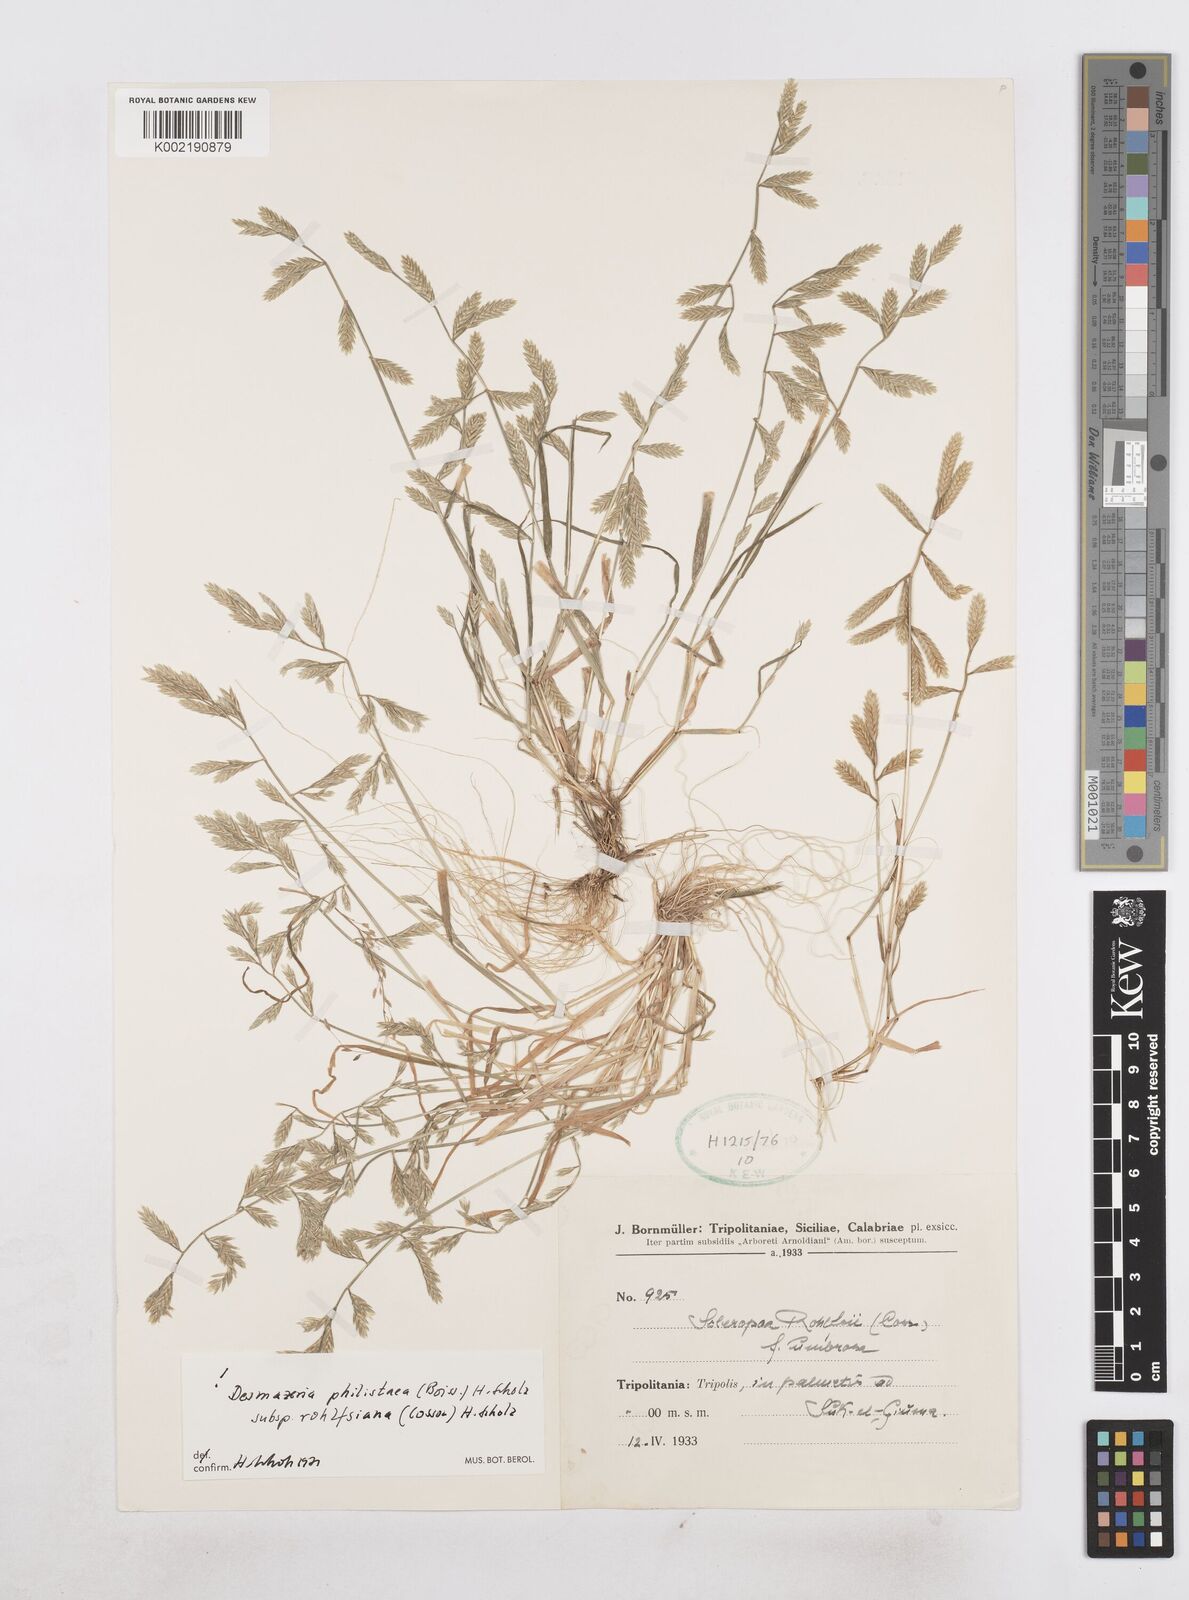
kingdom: Plantae
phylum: Tracheophyta
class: Liliopsida
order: Poales
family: Poaceae
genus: Desmazeria
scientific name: Desmazeria philistaea
